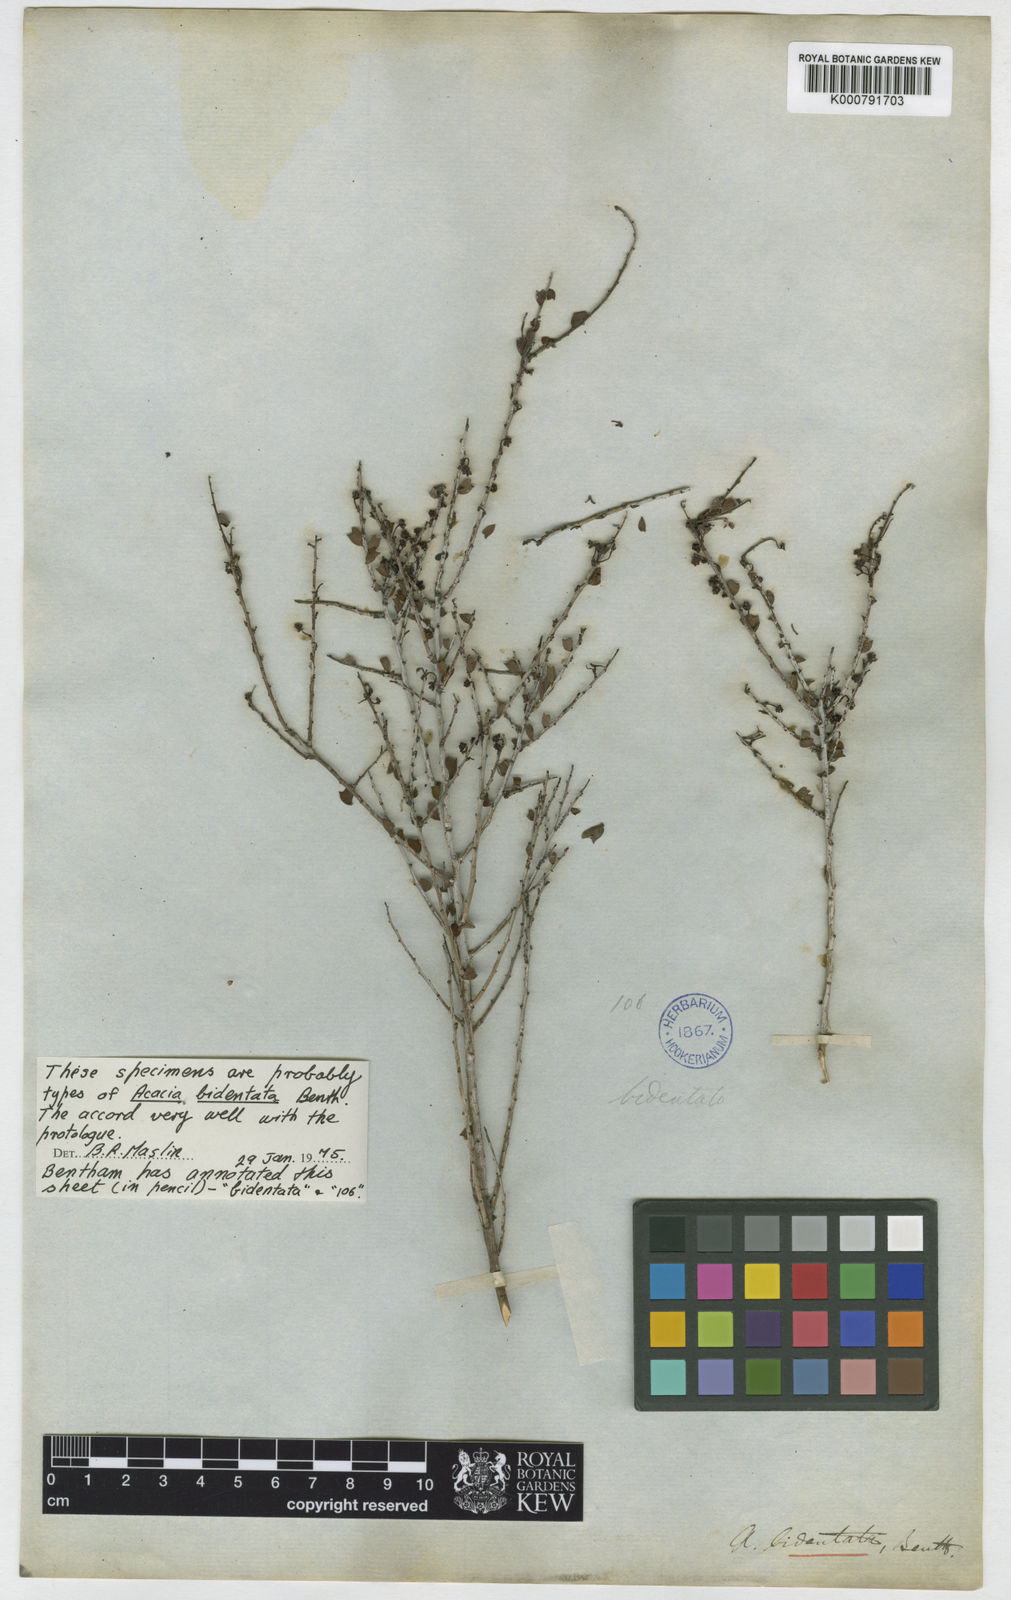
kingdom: Plantae
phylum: Tracheophyta
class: Magnoliopsida
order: Fabales
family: Fabaceae
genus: Acacia
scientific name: Acacia bidentata
